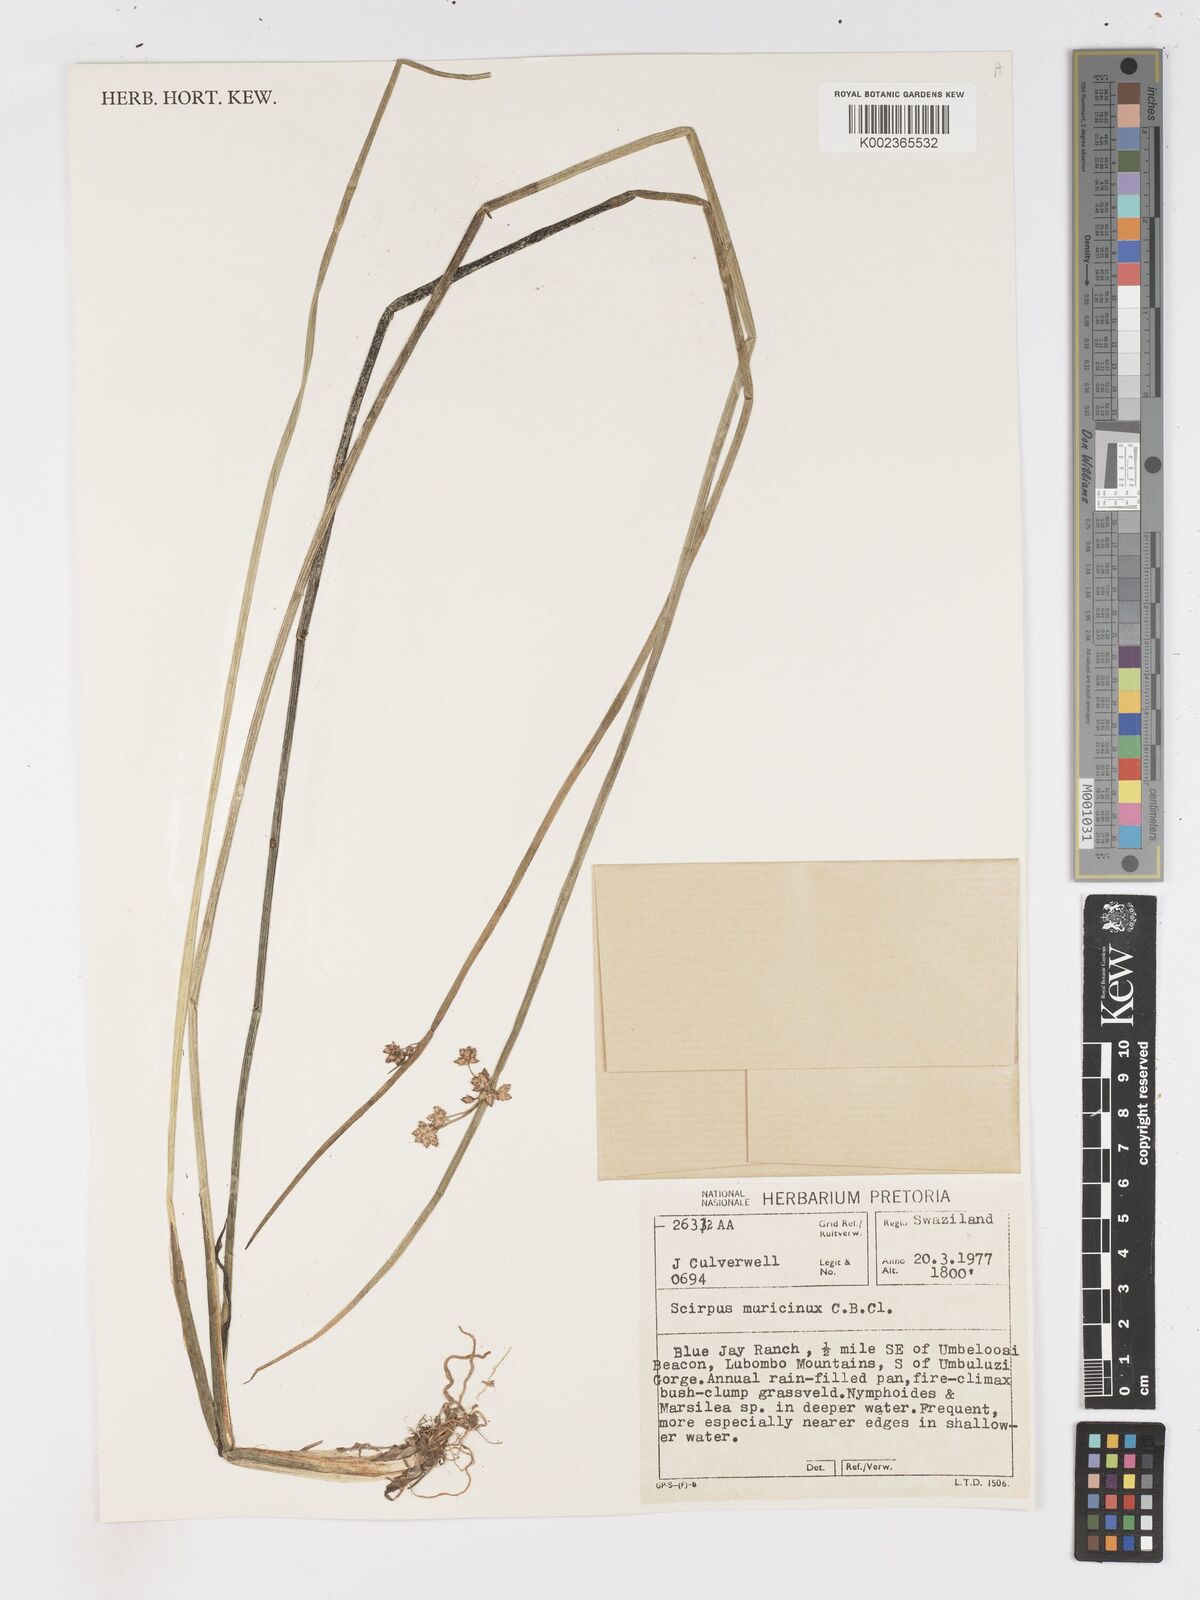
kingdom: Plantae
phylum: Tracheophyta
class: Liliopsida
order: Poales
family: Cyperaceae
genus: Schoenoplectiella
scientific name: Schoenoplectiella muricinux
